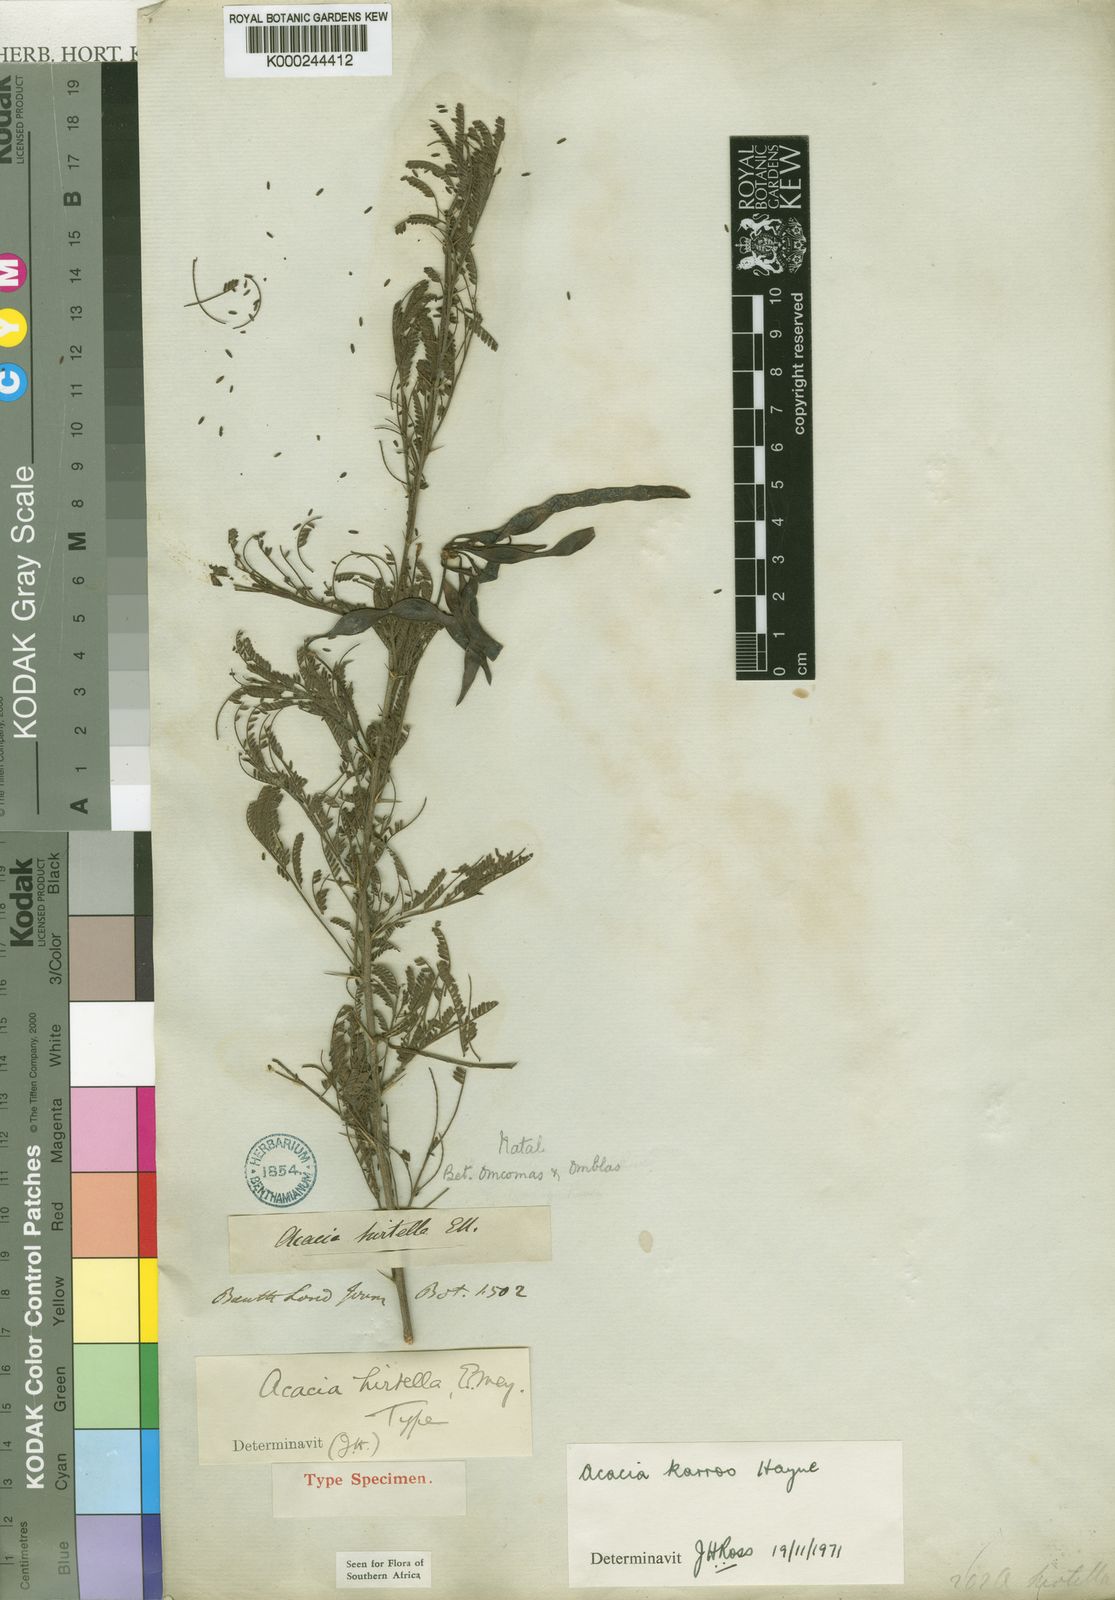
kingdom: Plantae
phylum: Tracheophyta
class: Magnoliopsida
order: Fabales
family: Fabaceae
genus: Vachellia
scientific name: Vachellia karroo
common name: Sweet thorn
